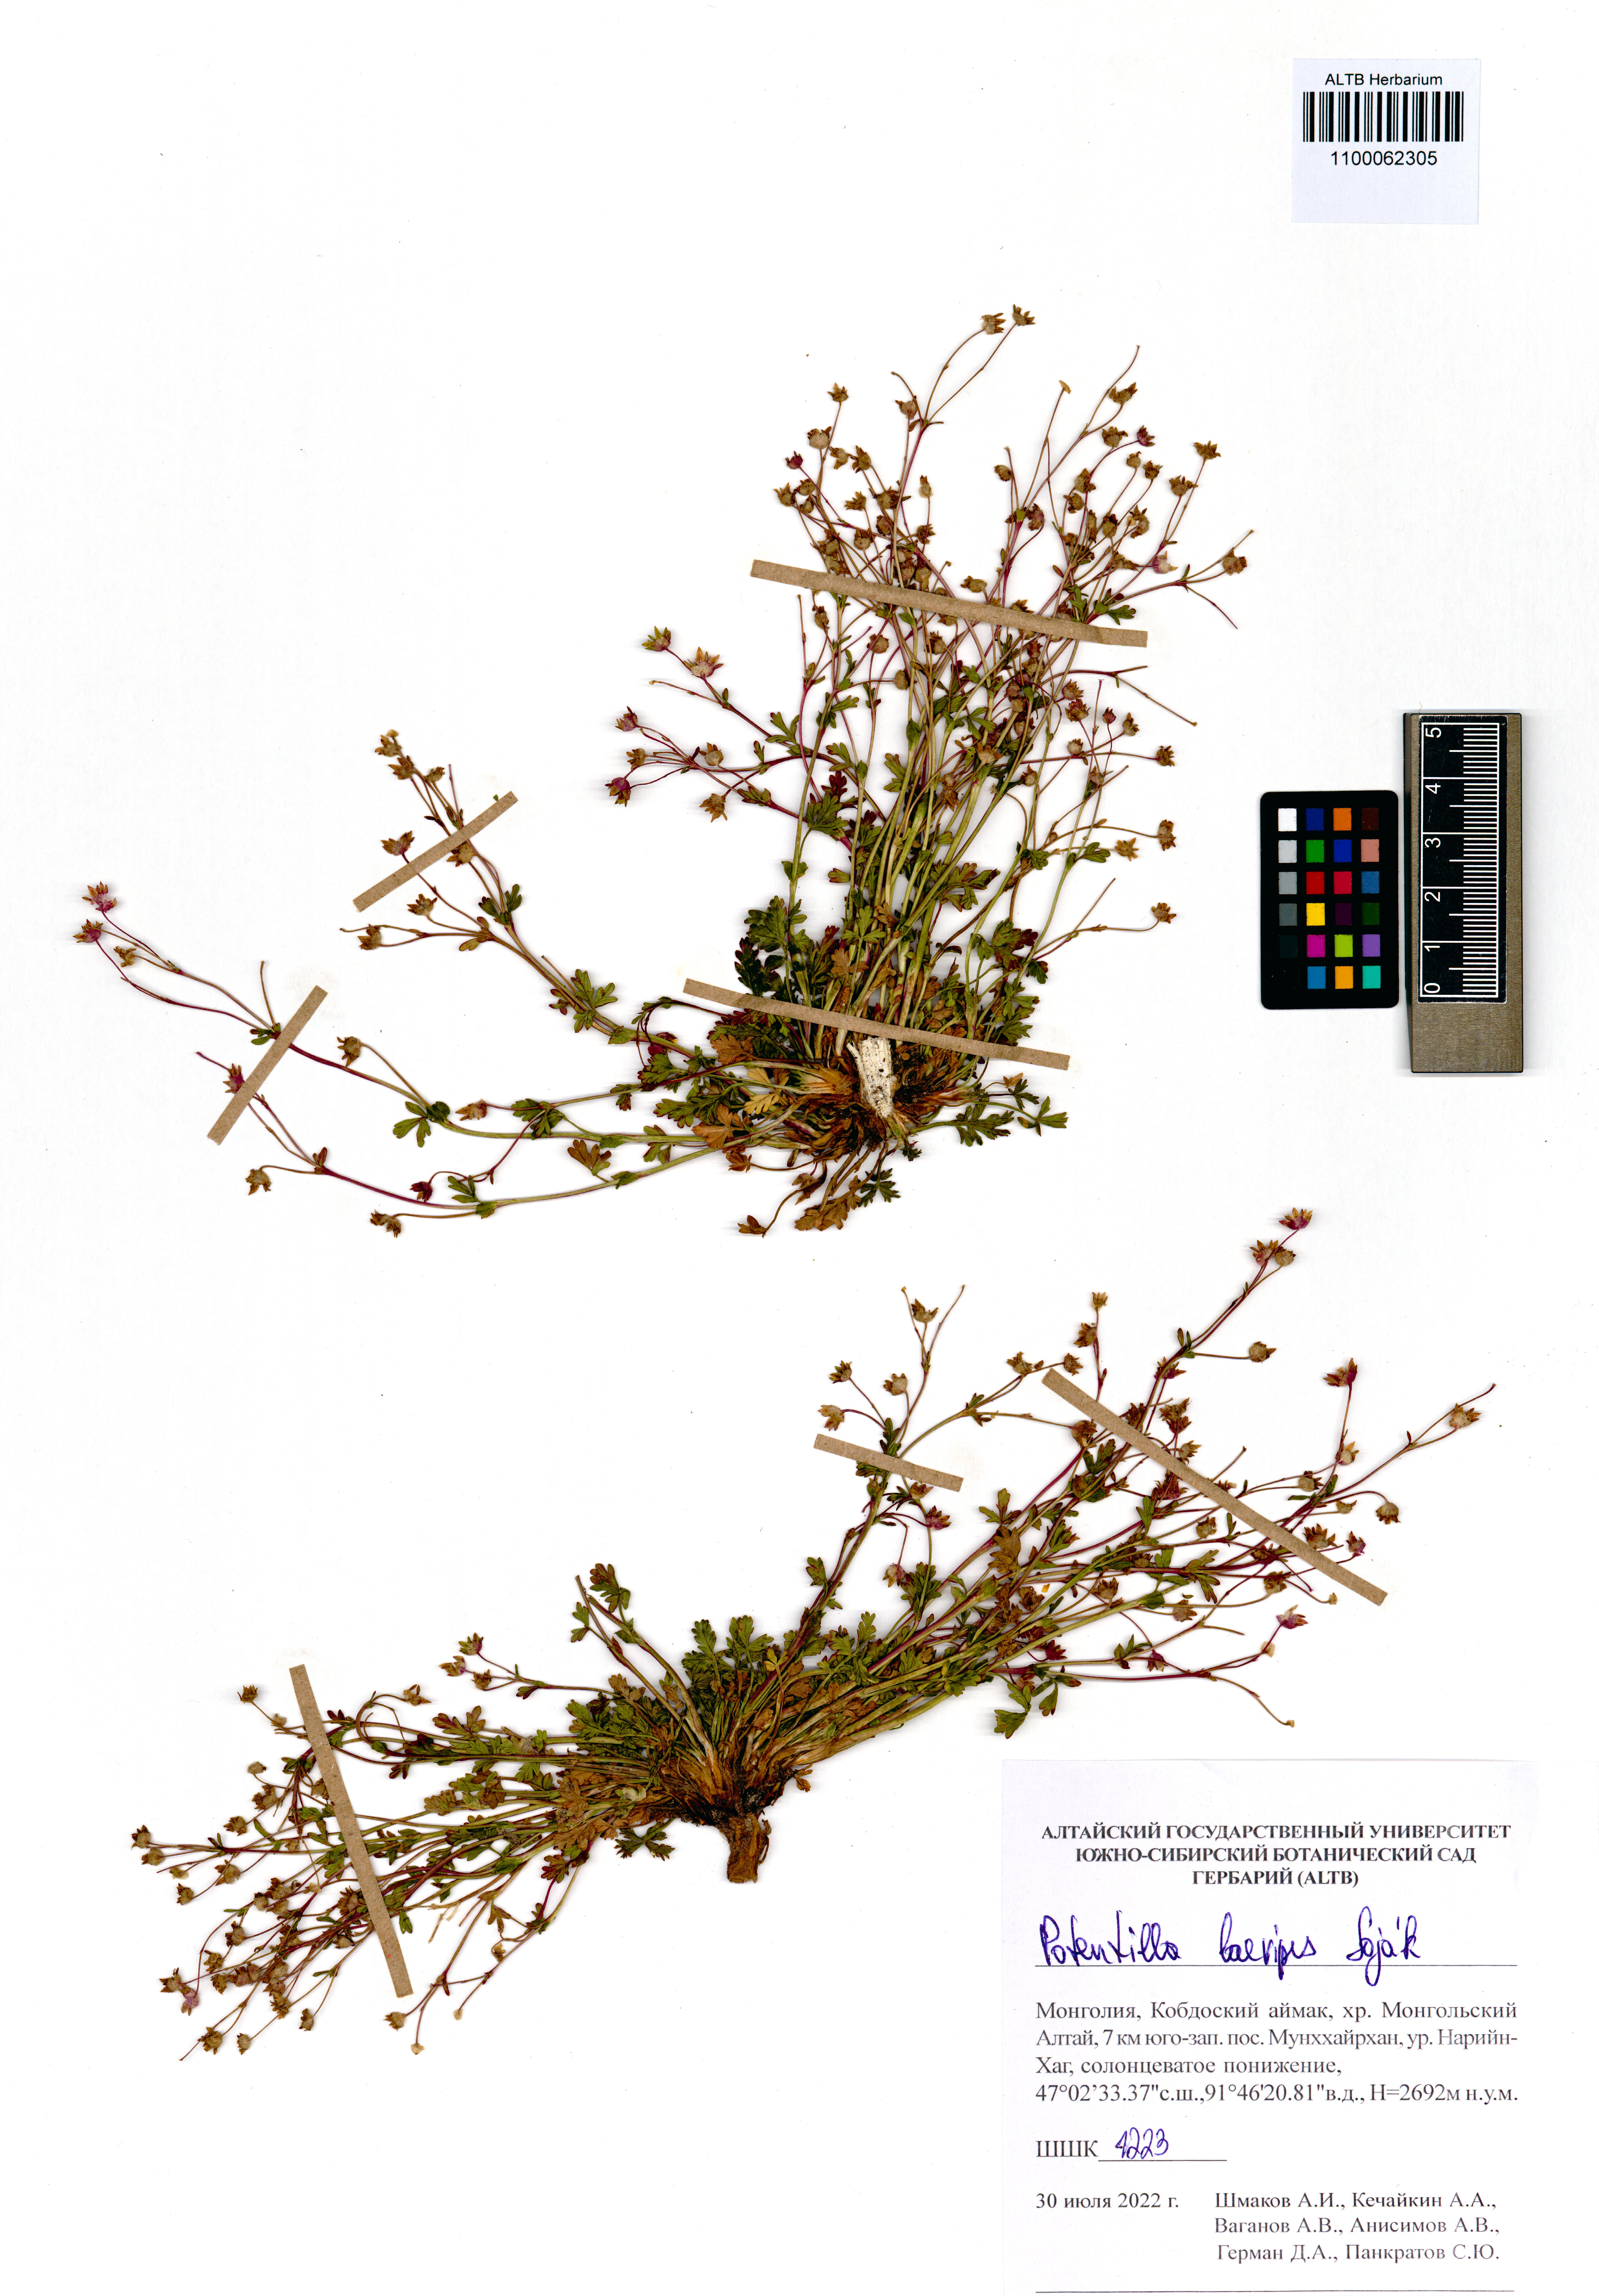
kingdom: Plantae
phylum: Tracheophyta
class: Magnoliopsida
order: Rosales
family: Rosaceae
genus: Potentilla
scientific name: Potentilla laevipes
